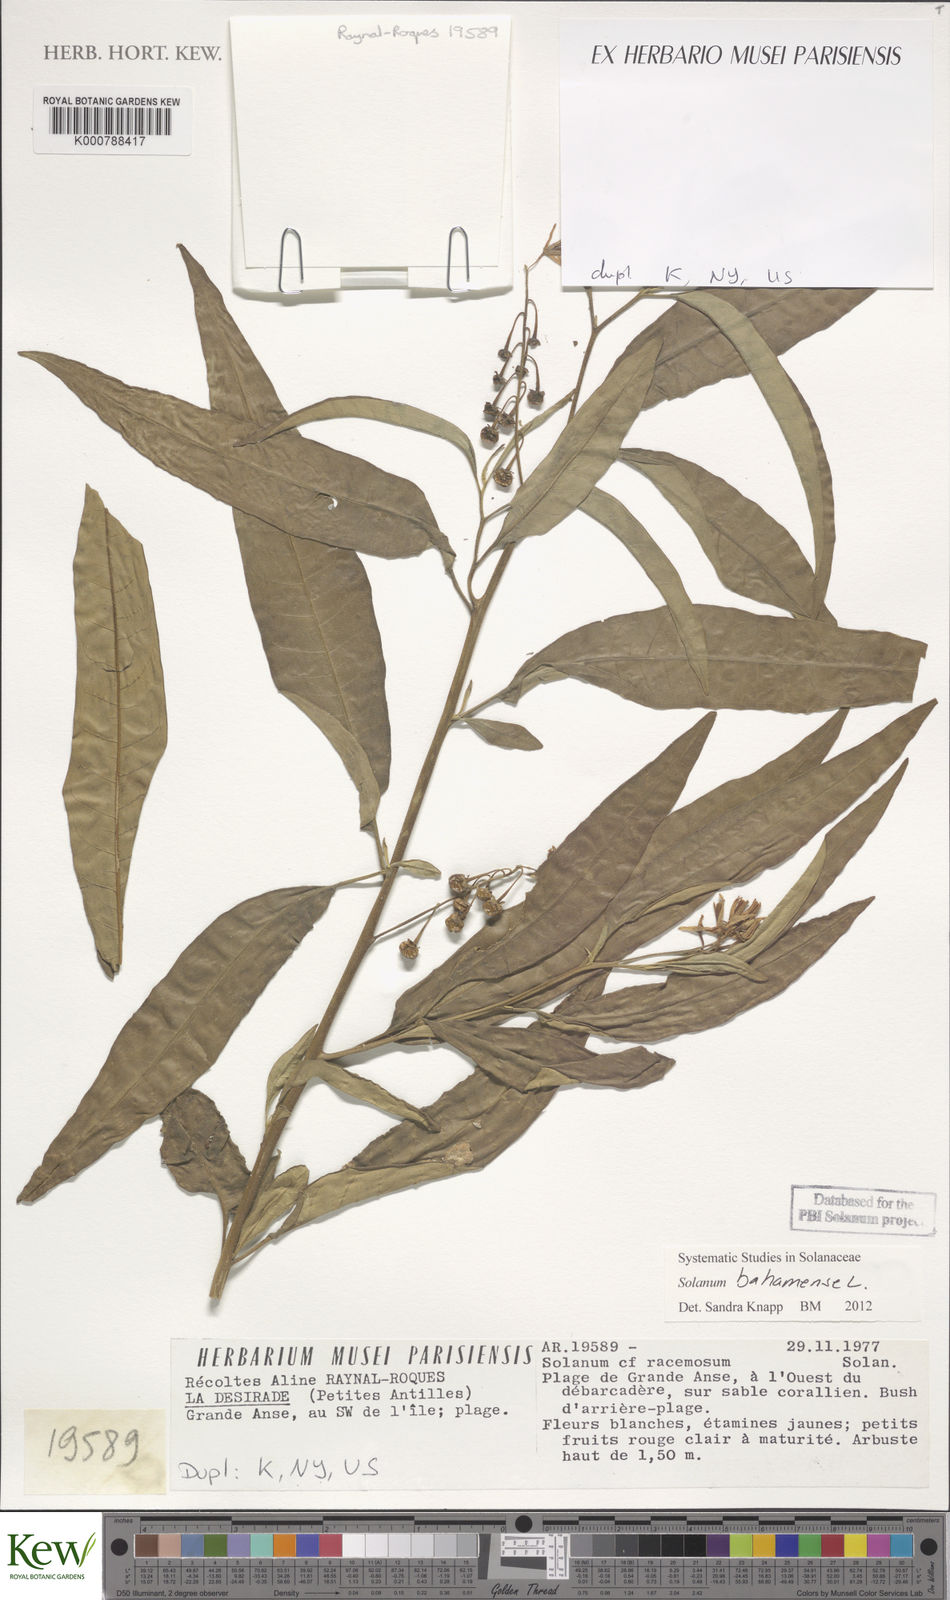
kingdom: Plantae
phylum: Tracheophyta
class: Magnoliopsida
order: Solanales
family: Solanaceae
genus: Solanum
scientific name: Solanum bahamense
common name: Canker-berry
